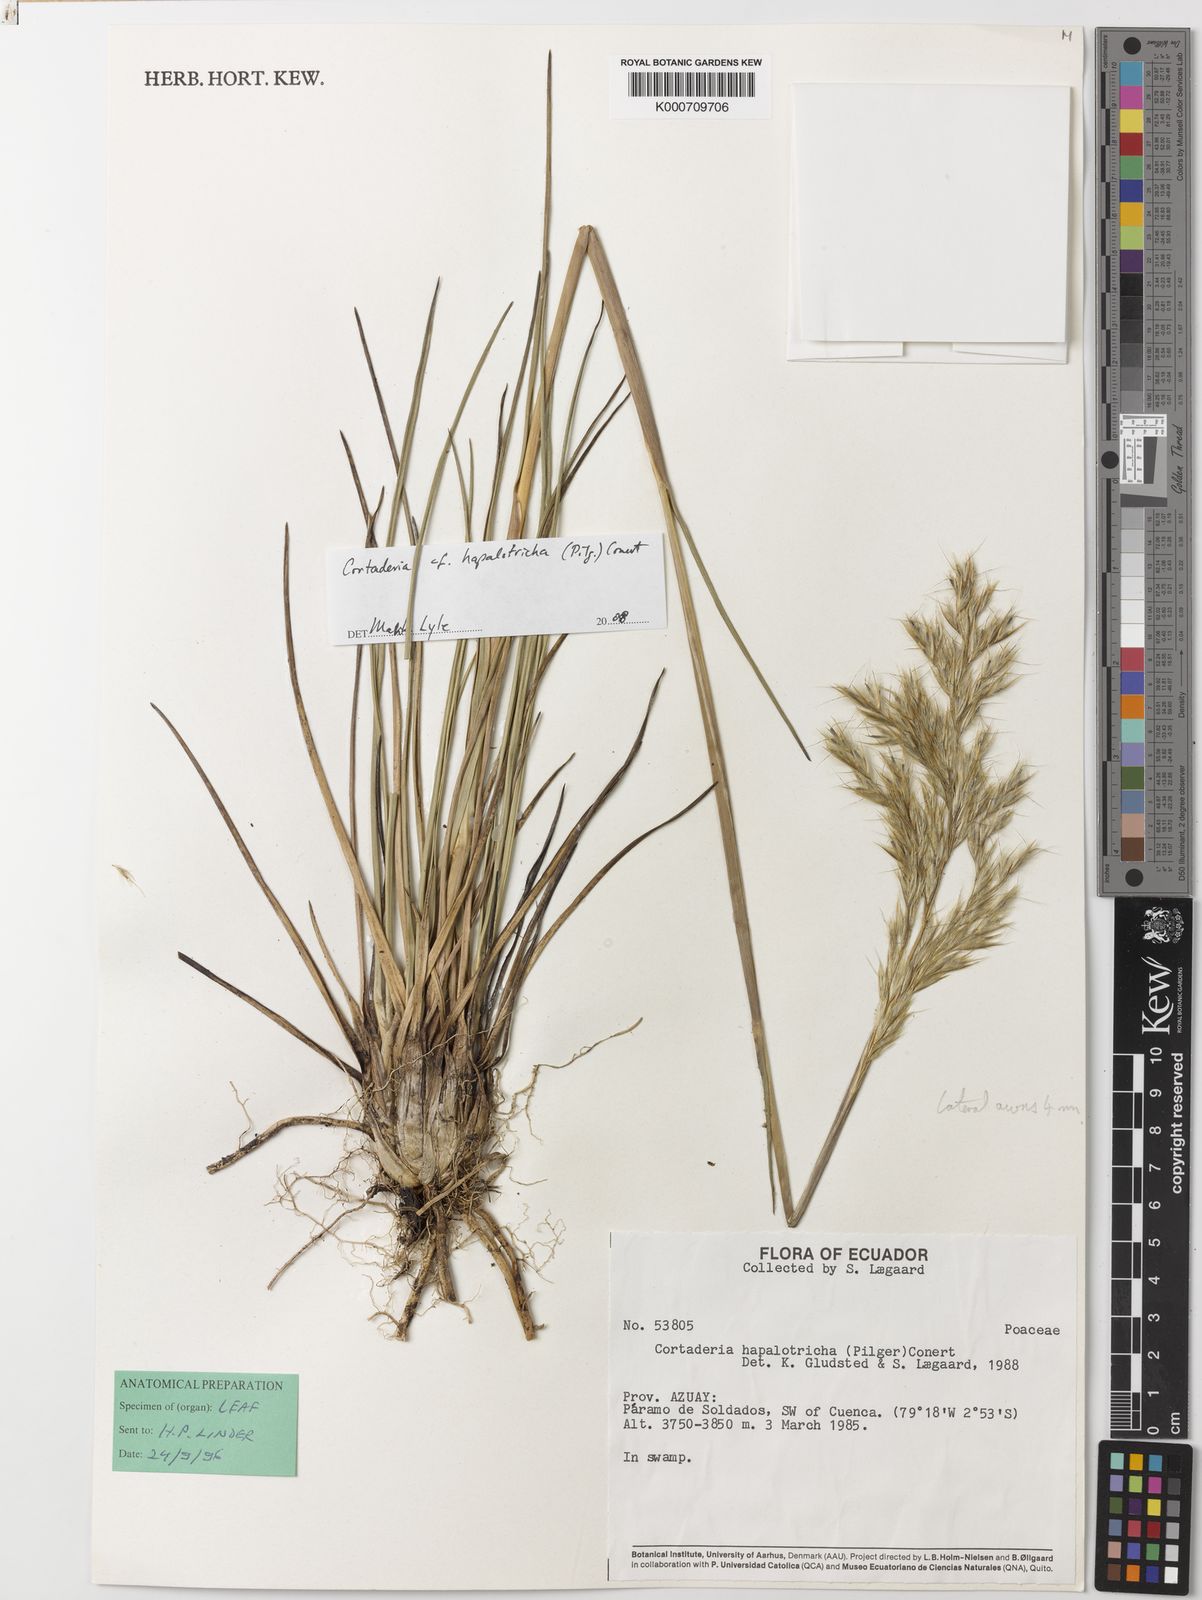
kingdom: Plantae
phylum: Tracheophyta
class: Liliopsida
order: Poales
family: Poaceae
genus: Cortaderia
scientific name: Cortaderia hapalotricha
